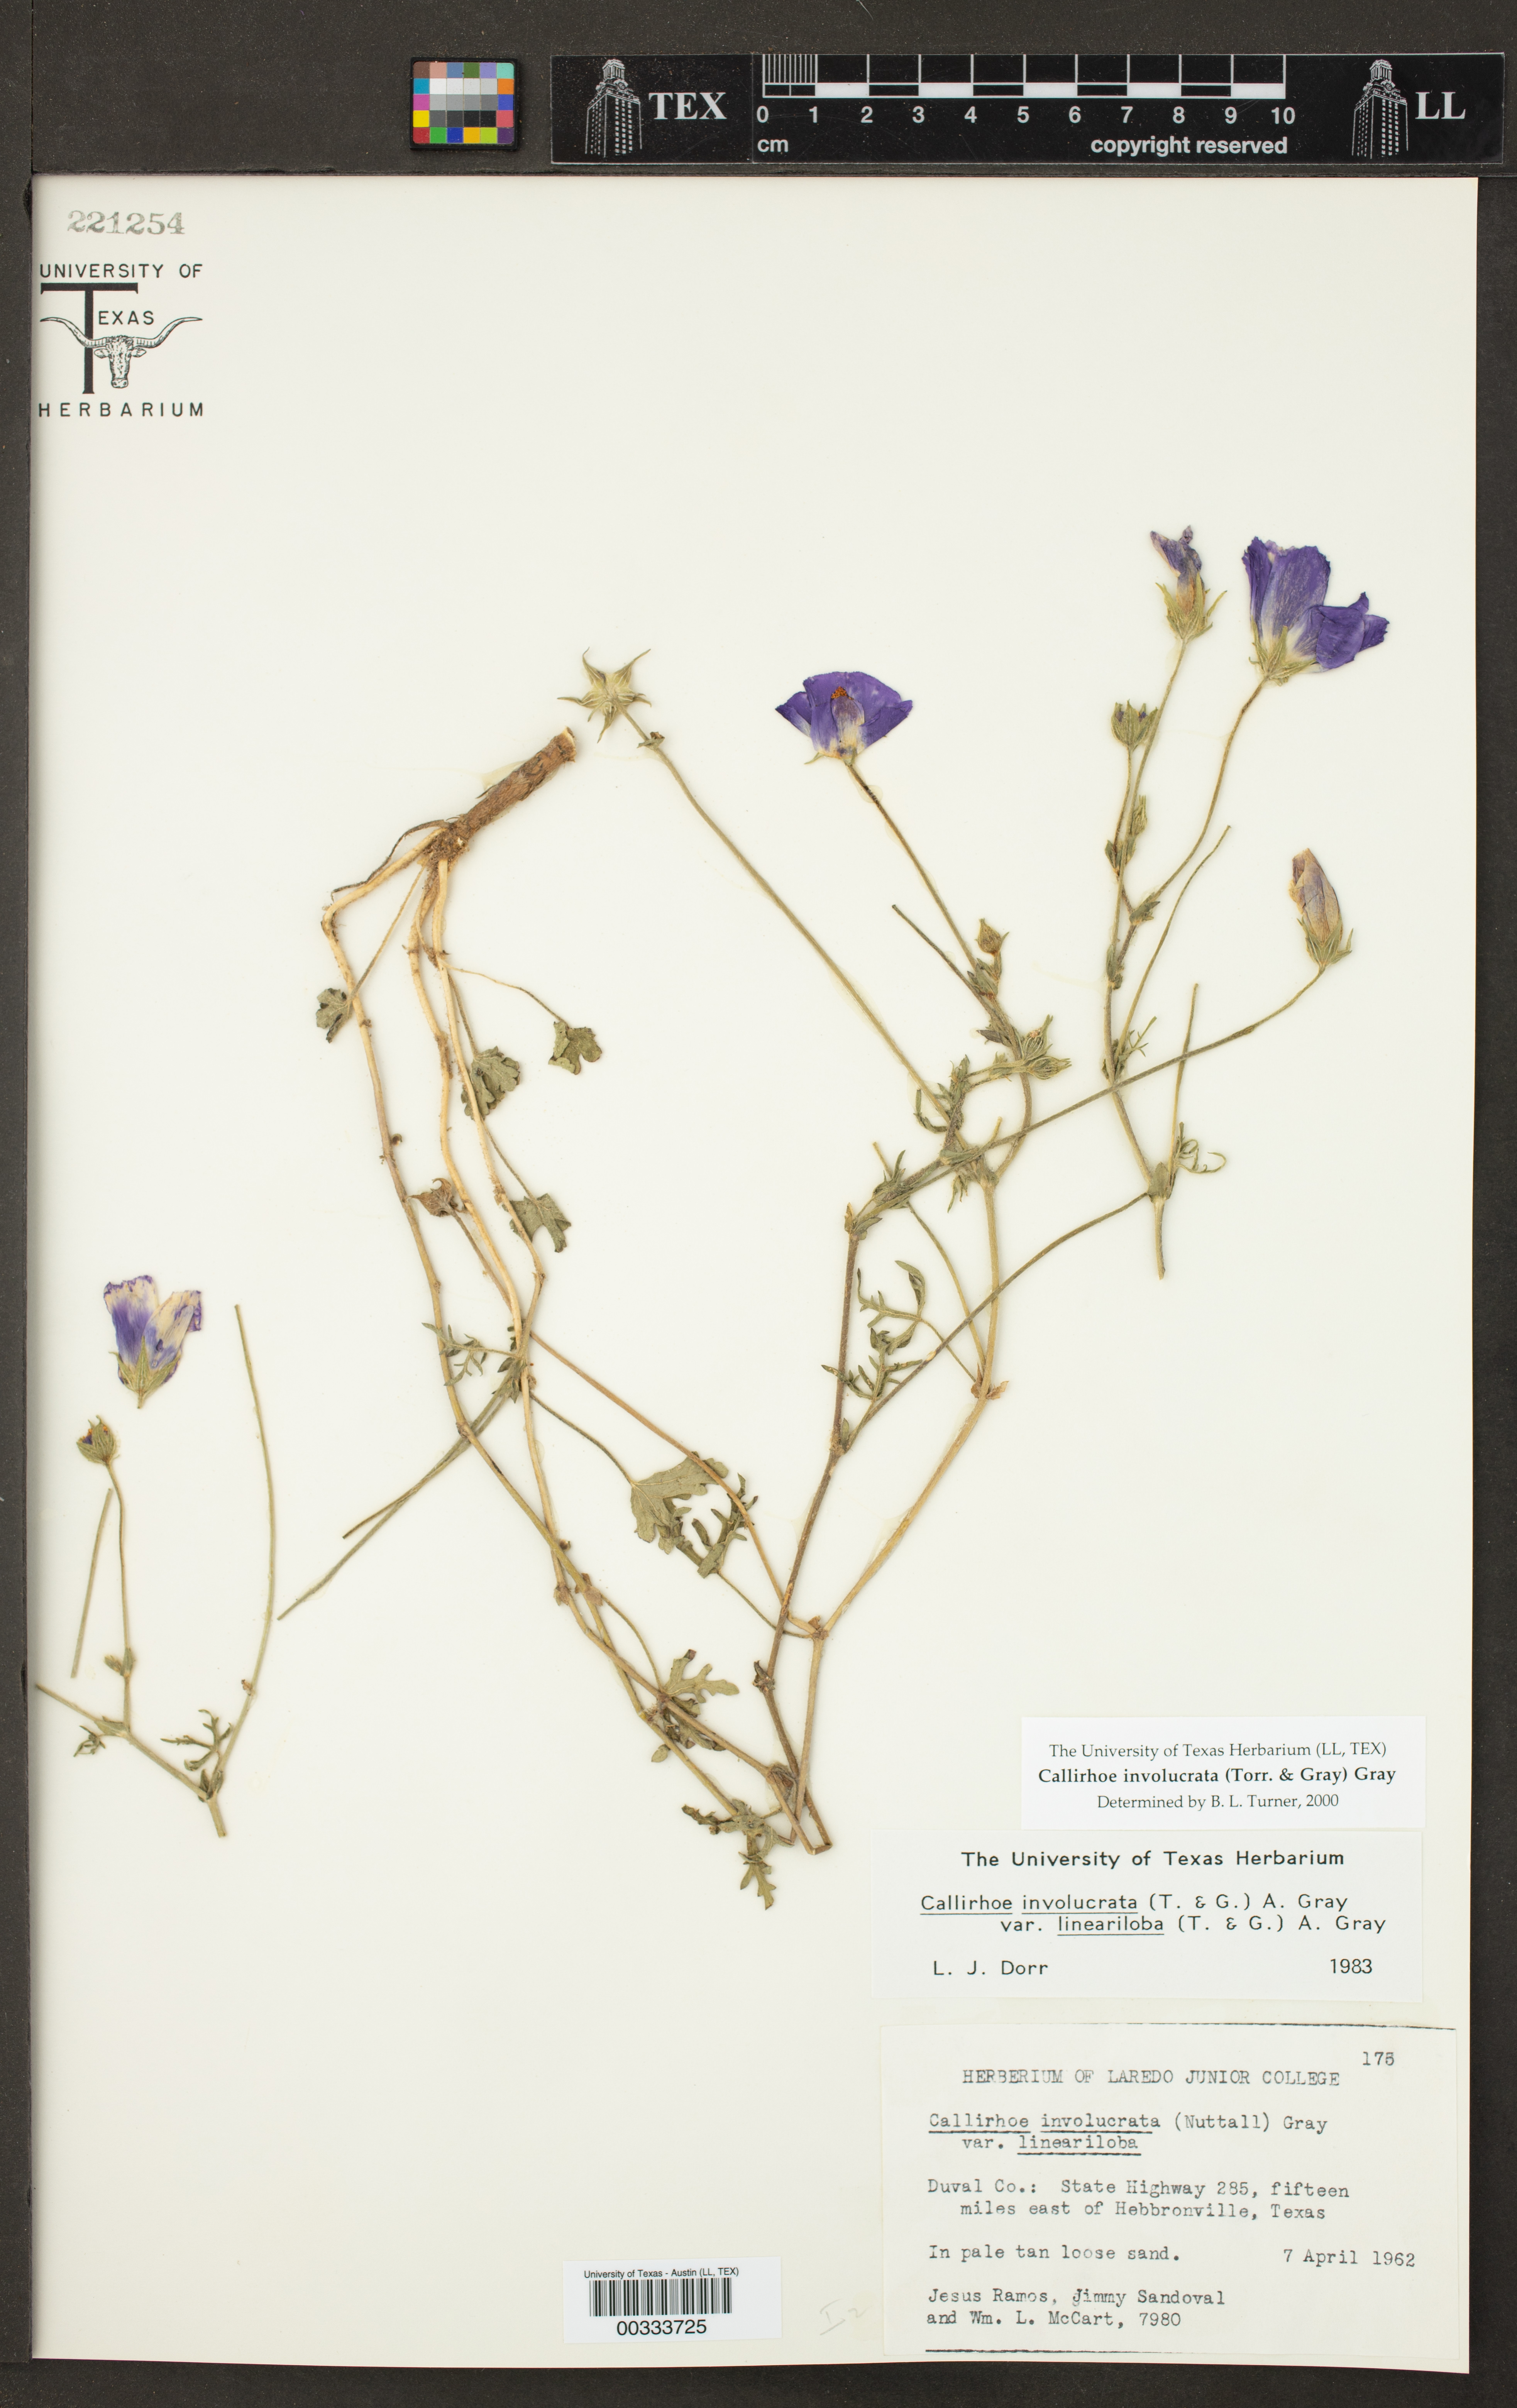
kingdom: Plantae
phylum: Tracheophyta
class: Magnoliopsida
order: Malvales
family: Malvaceae
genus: Callirhoe
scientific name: Callirhoe involucrata
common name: Purple poppy-mallow
